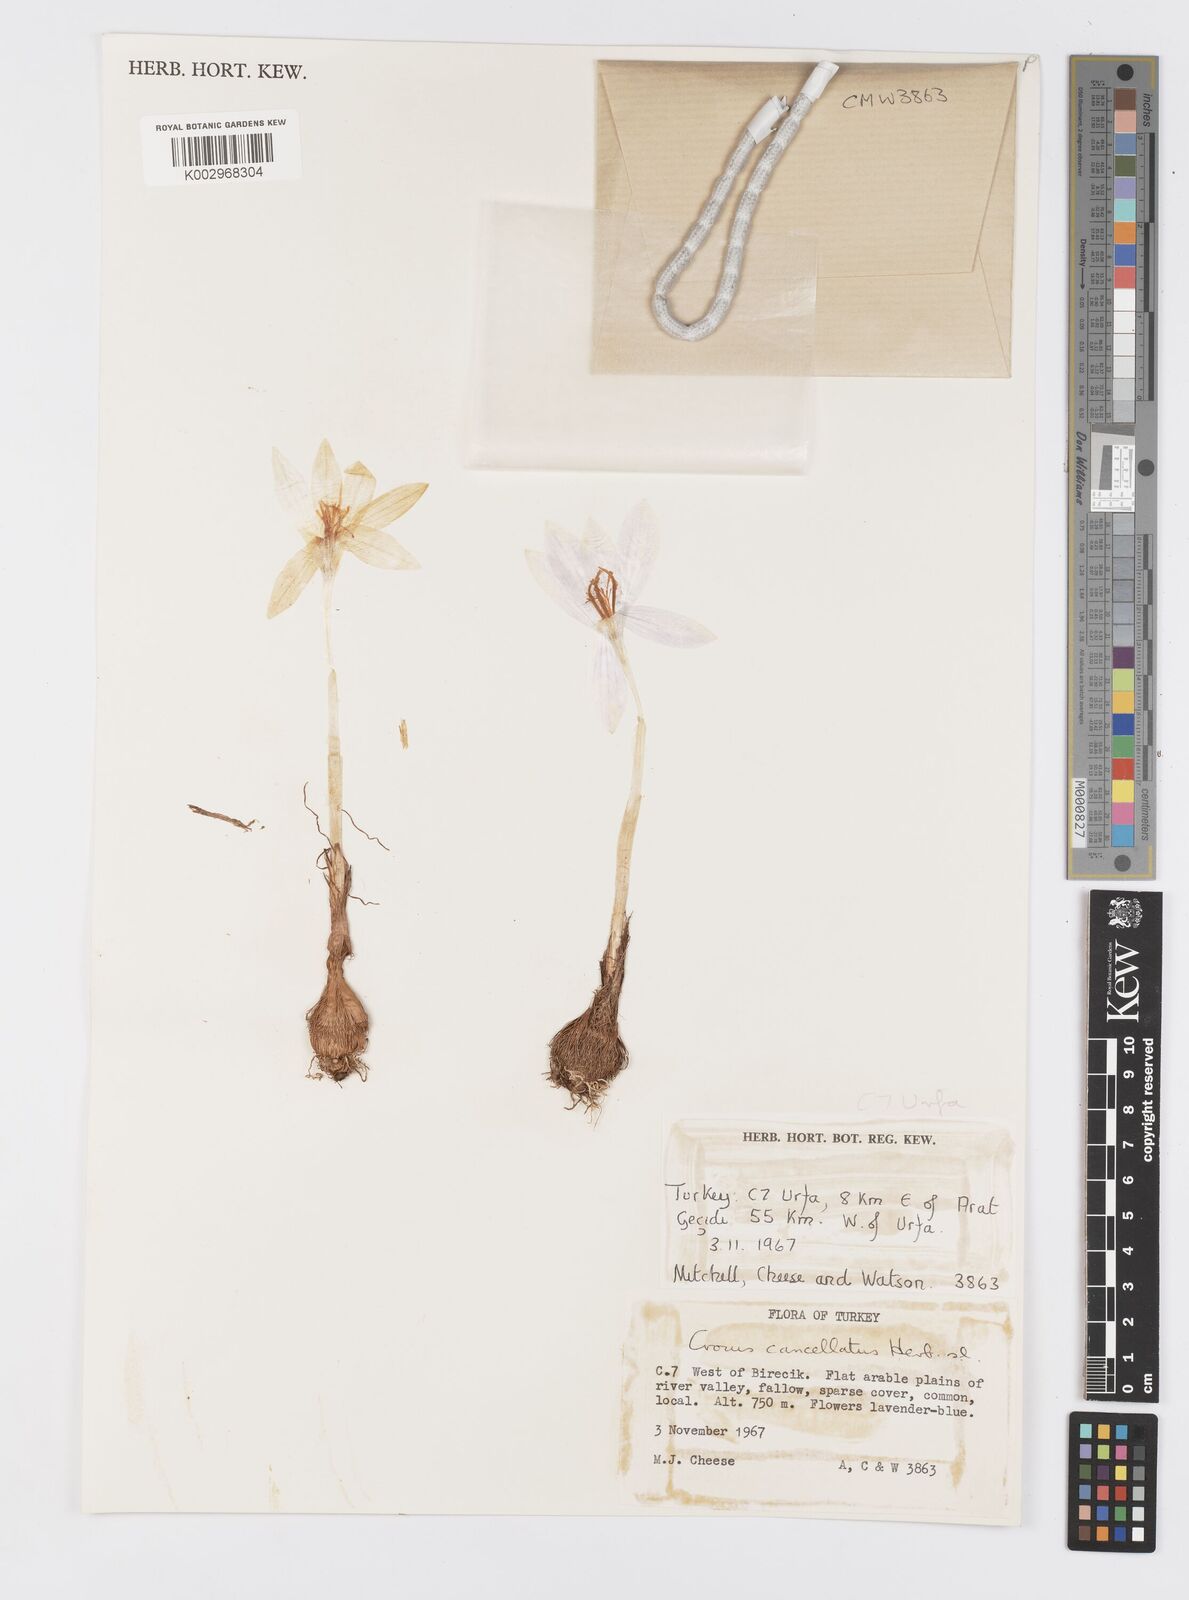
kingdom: Plantae
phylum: Tracheophyta
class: Liliopsida
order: Asparagales
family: Iridaceae
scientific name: Iridaceae
